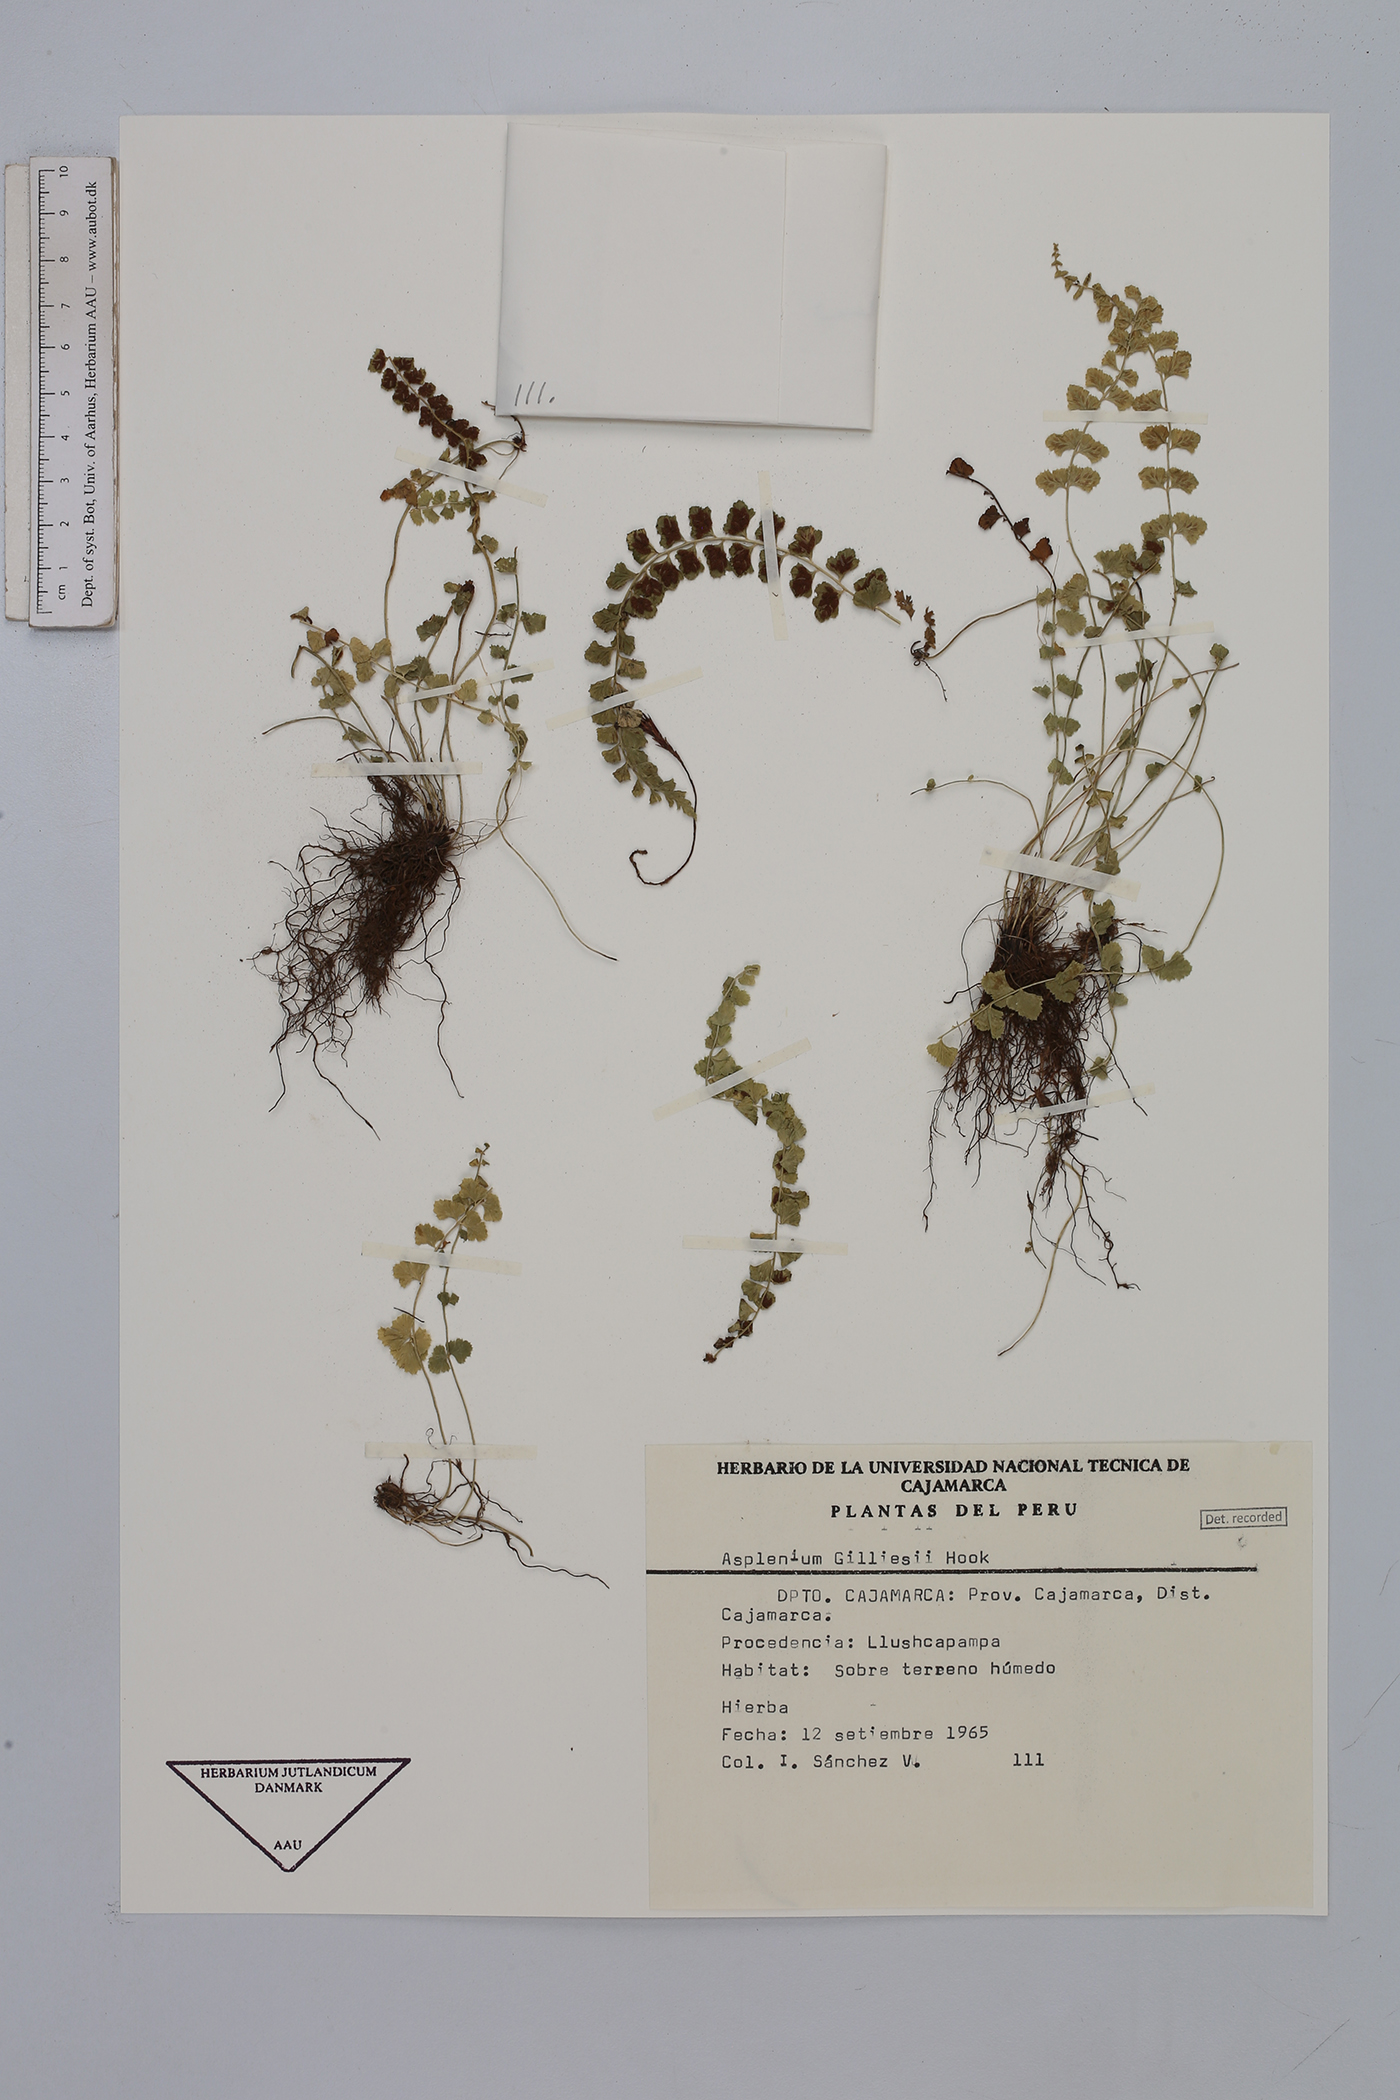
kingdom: Plantae
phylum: Tracheophyta
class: Polypodiopsida
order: Polypodiales
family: Aspleniaceae
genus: Asplenium
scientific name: Asplenium gilliesii
